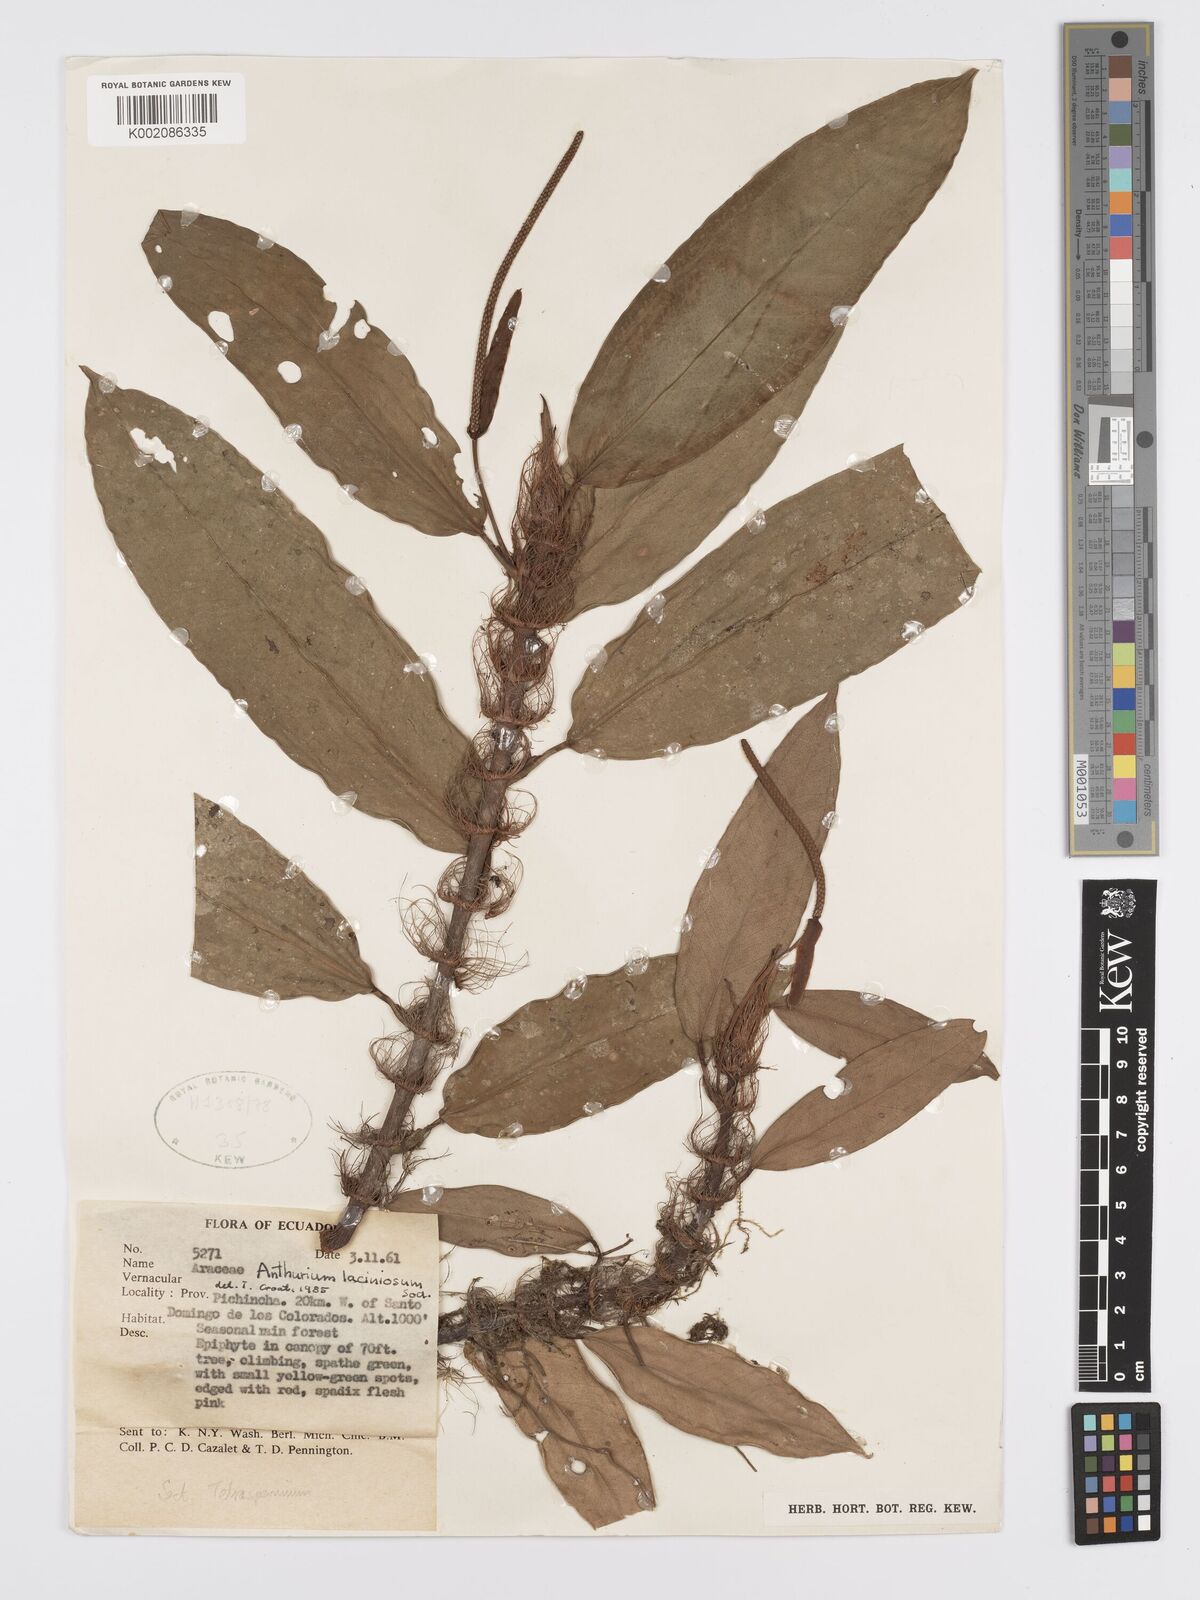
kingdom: Plantae
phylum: Tracheophyta
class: Liliopsida
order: Alismatales
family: Araceae
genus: Anthurium
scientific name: Anthurium laciniosum
